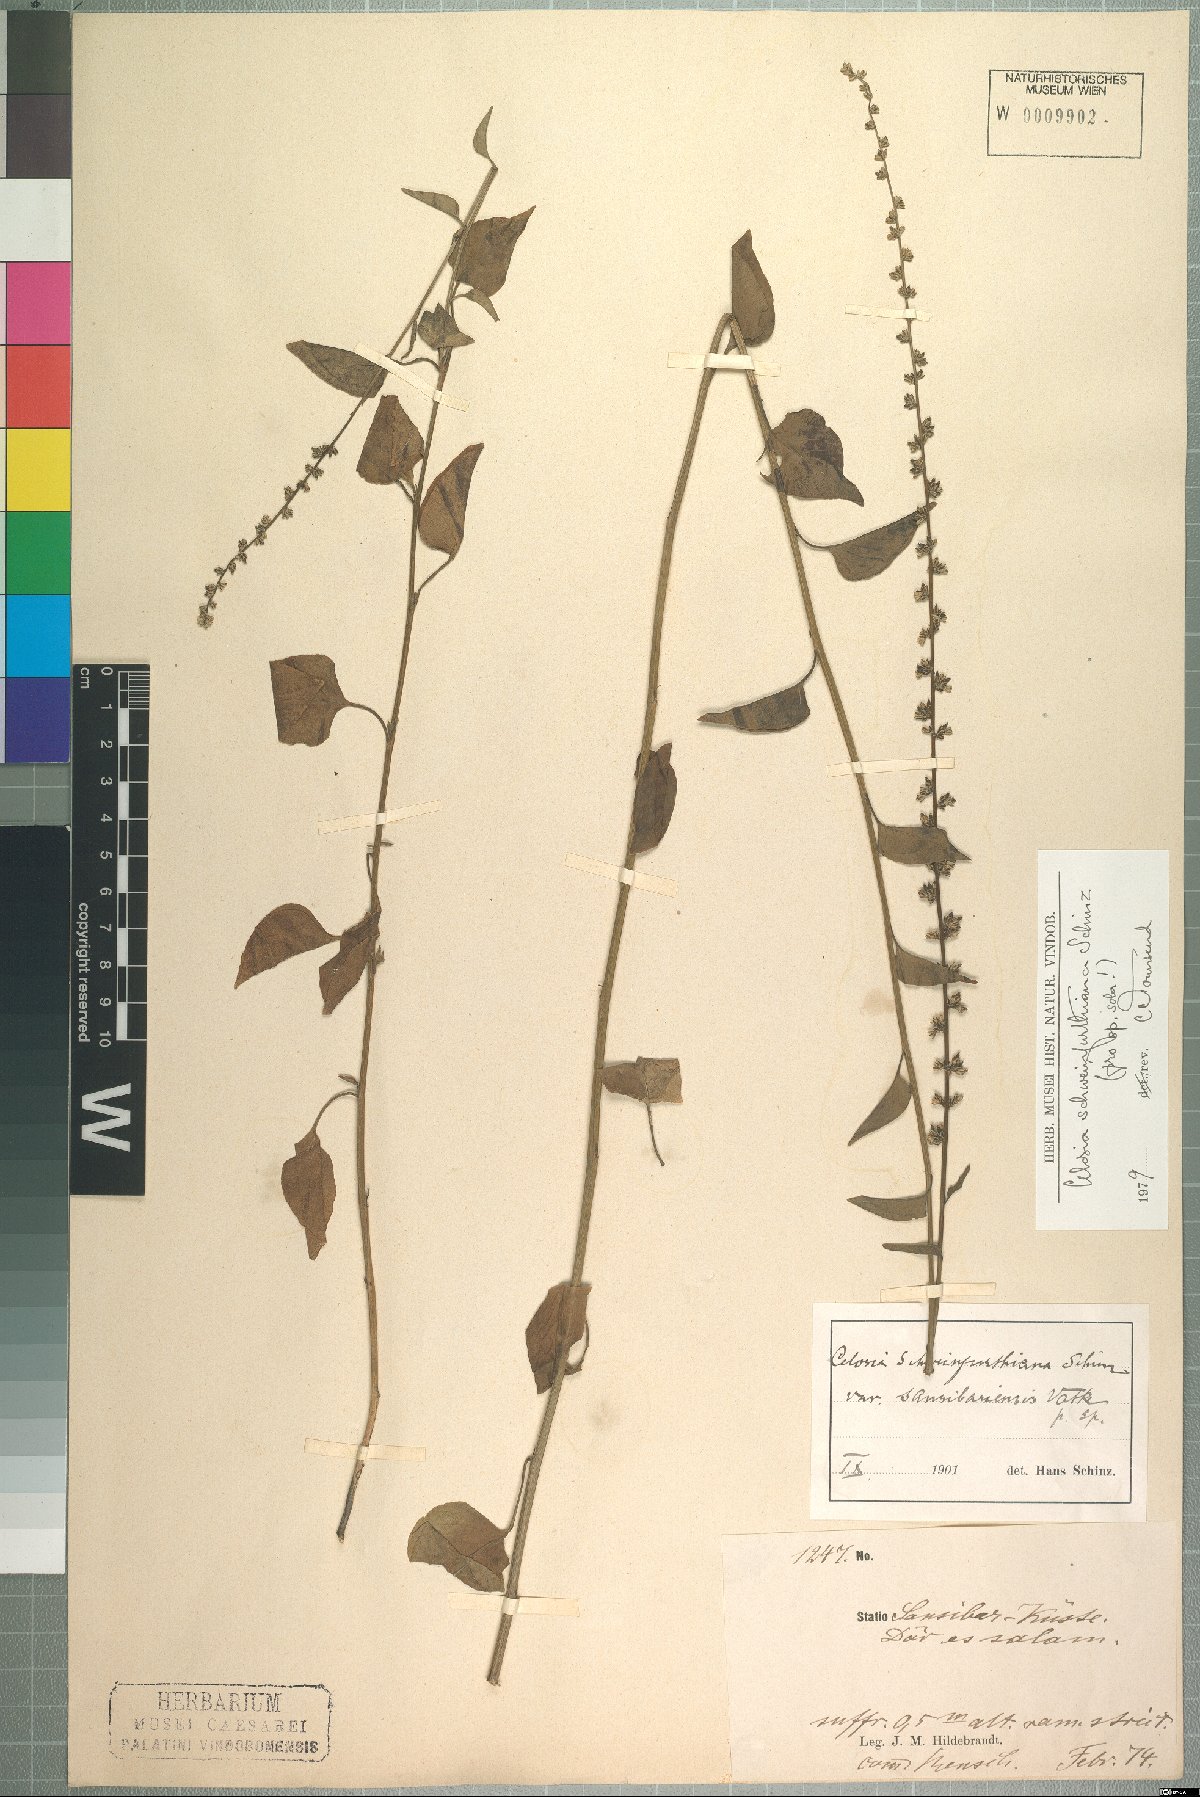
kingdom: Plantae
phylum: Tracheophyta
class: Magnoliopsida
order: Caryophyllales
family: Amaranthaceae
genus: Celosia
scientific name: Celosia schweinfurthiana
